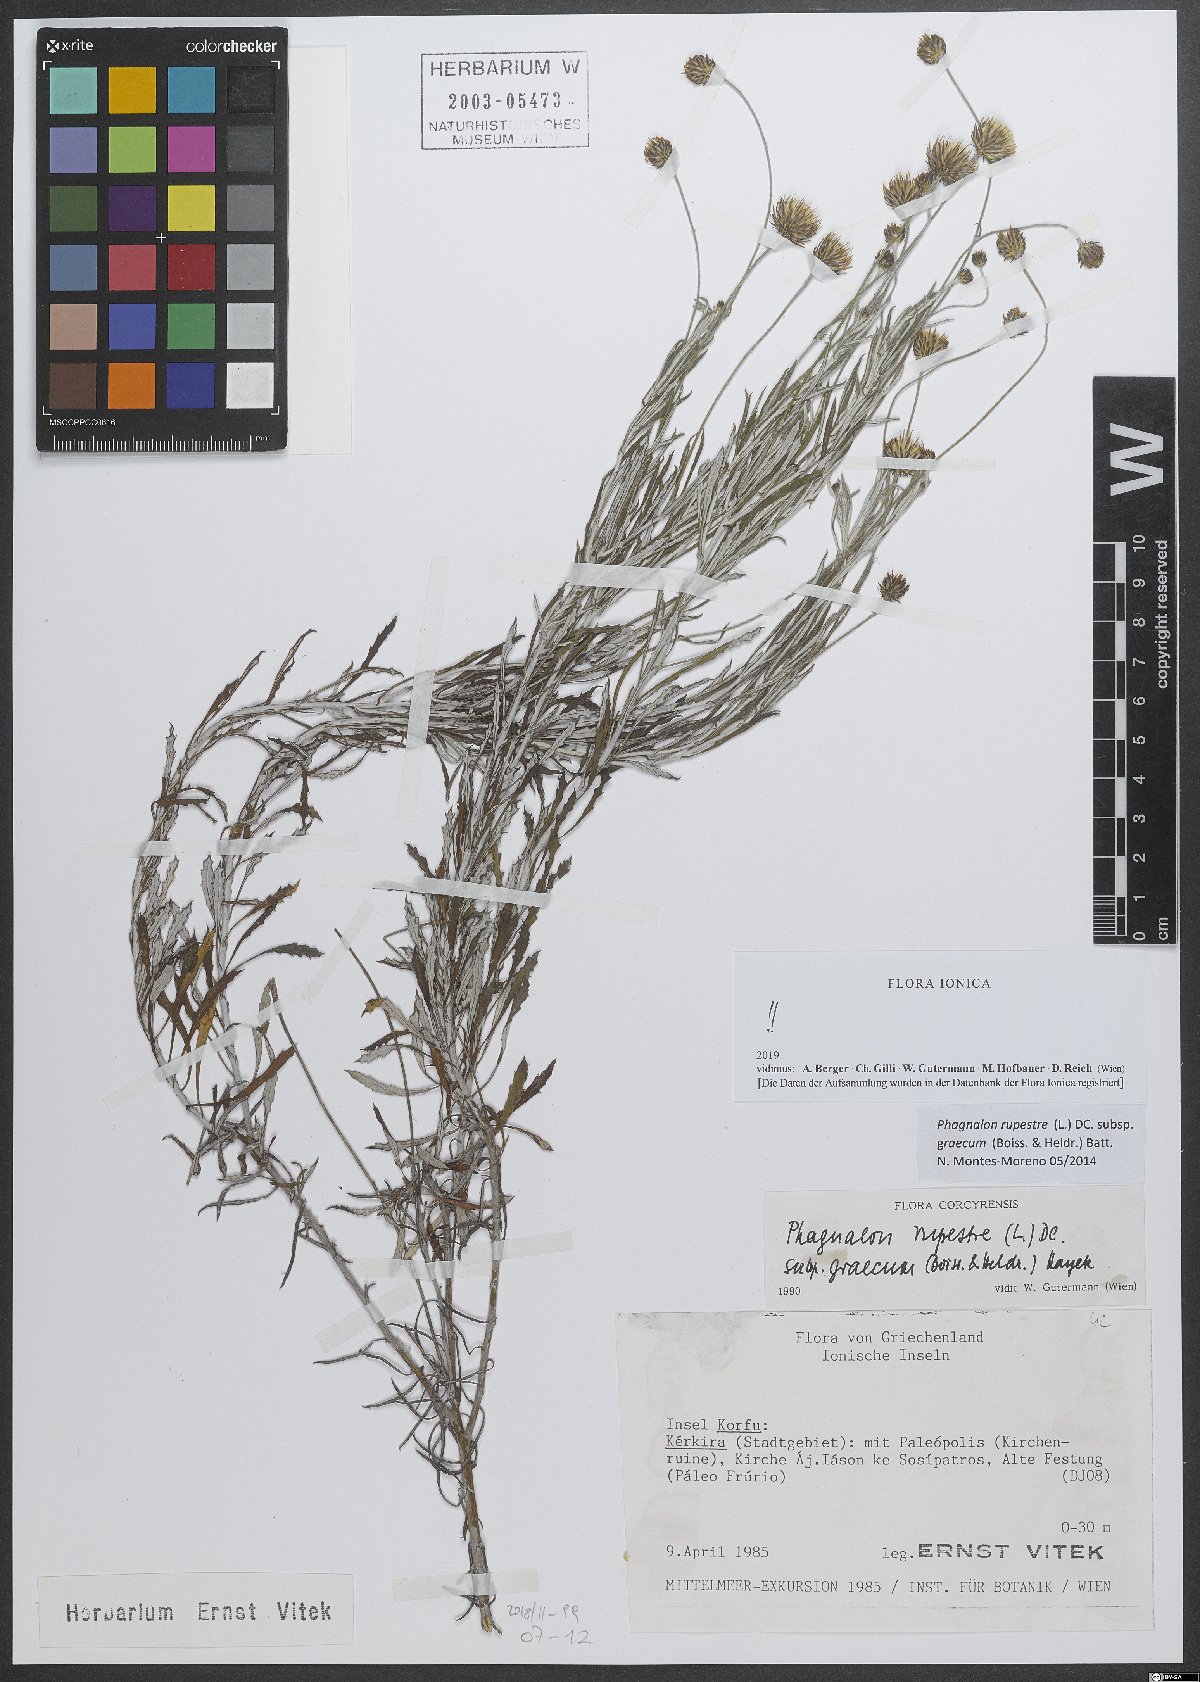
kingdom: Plantae
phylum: Tracheophyta
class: Magnoliopsida
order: Asterales
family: Asteraceae
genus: Phagnalon
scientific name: Phagnalon graecum
